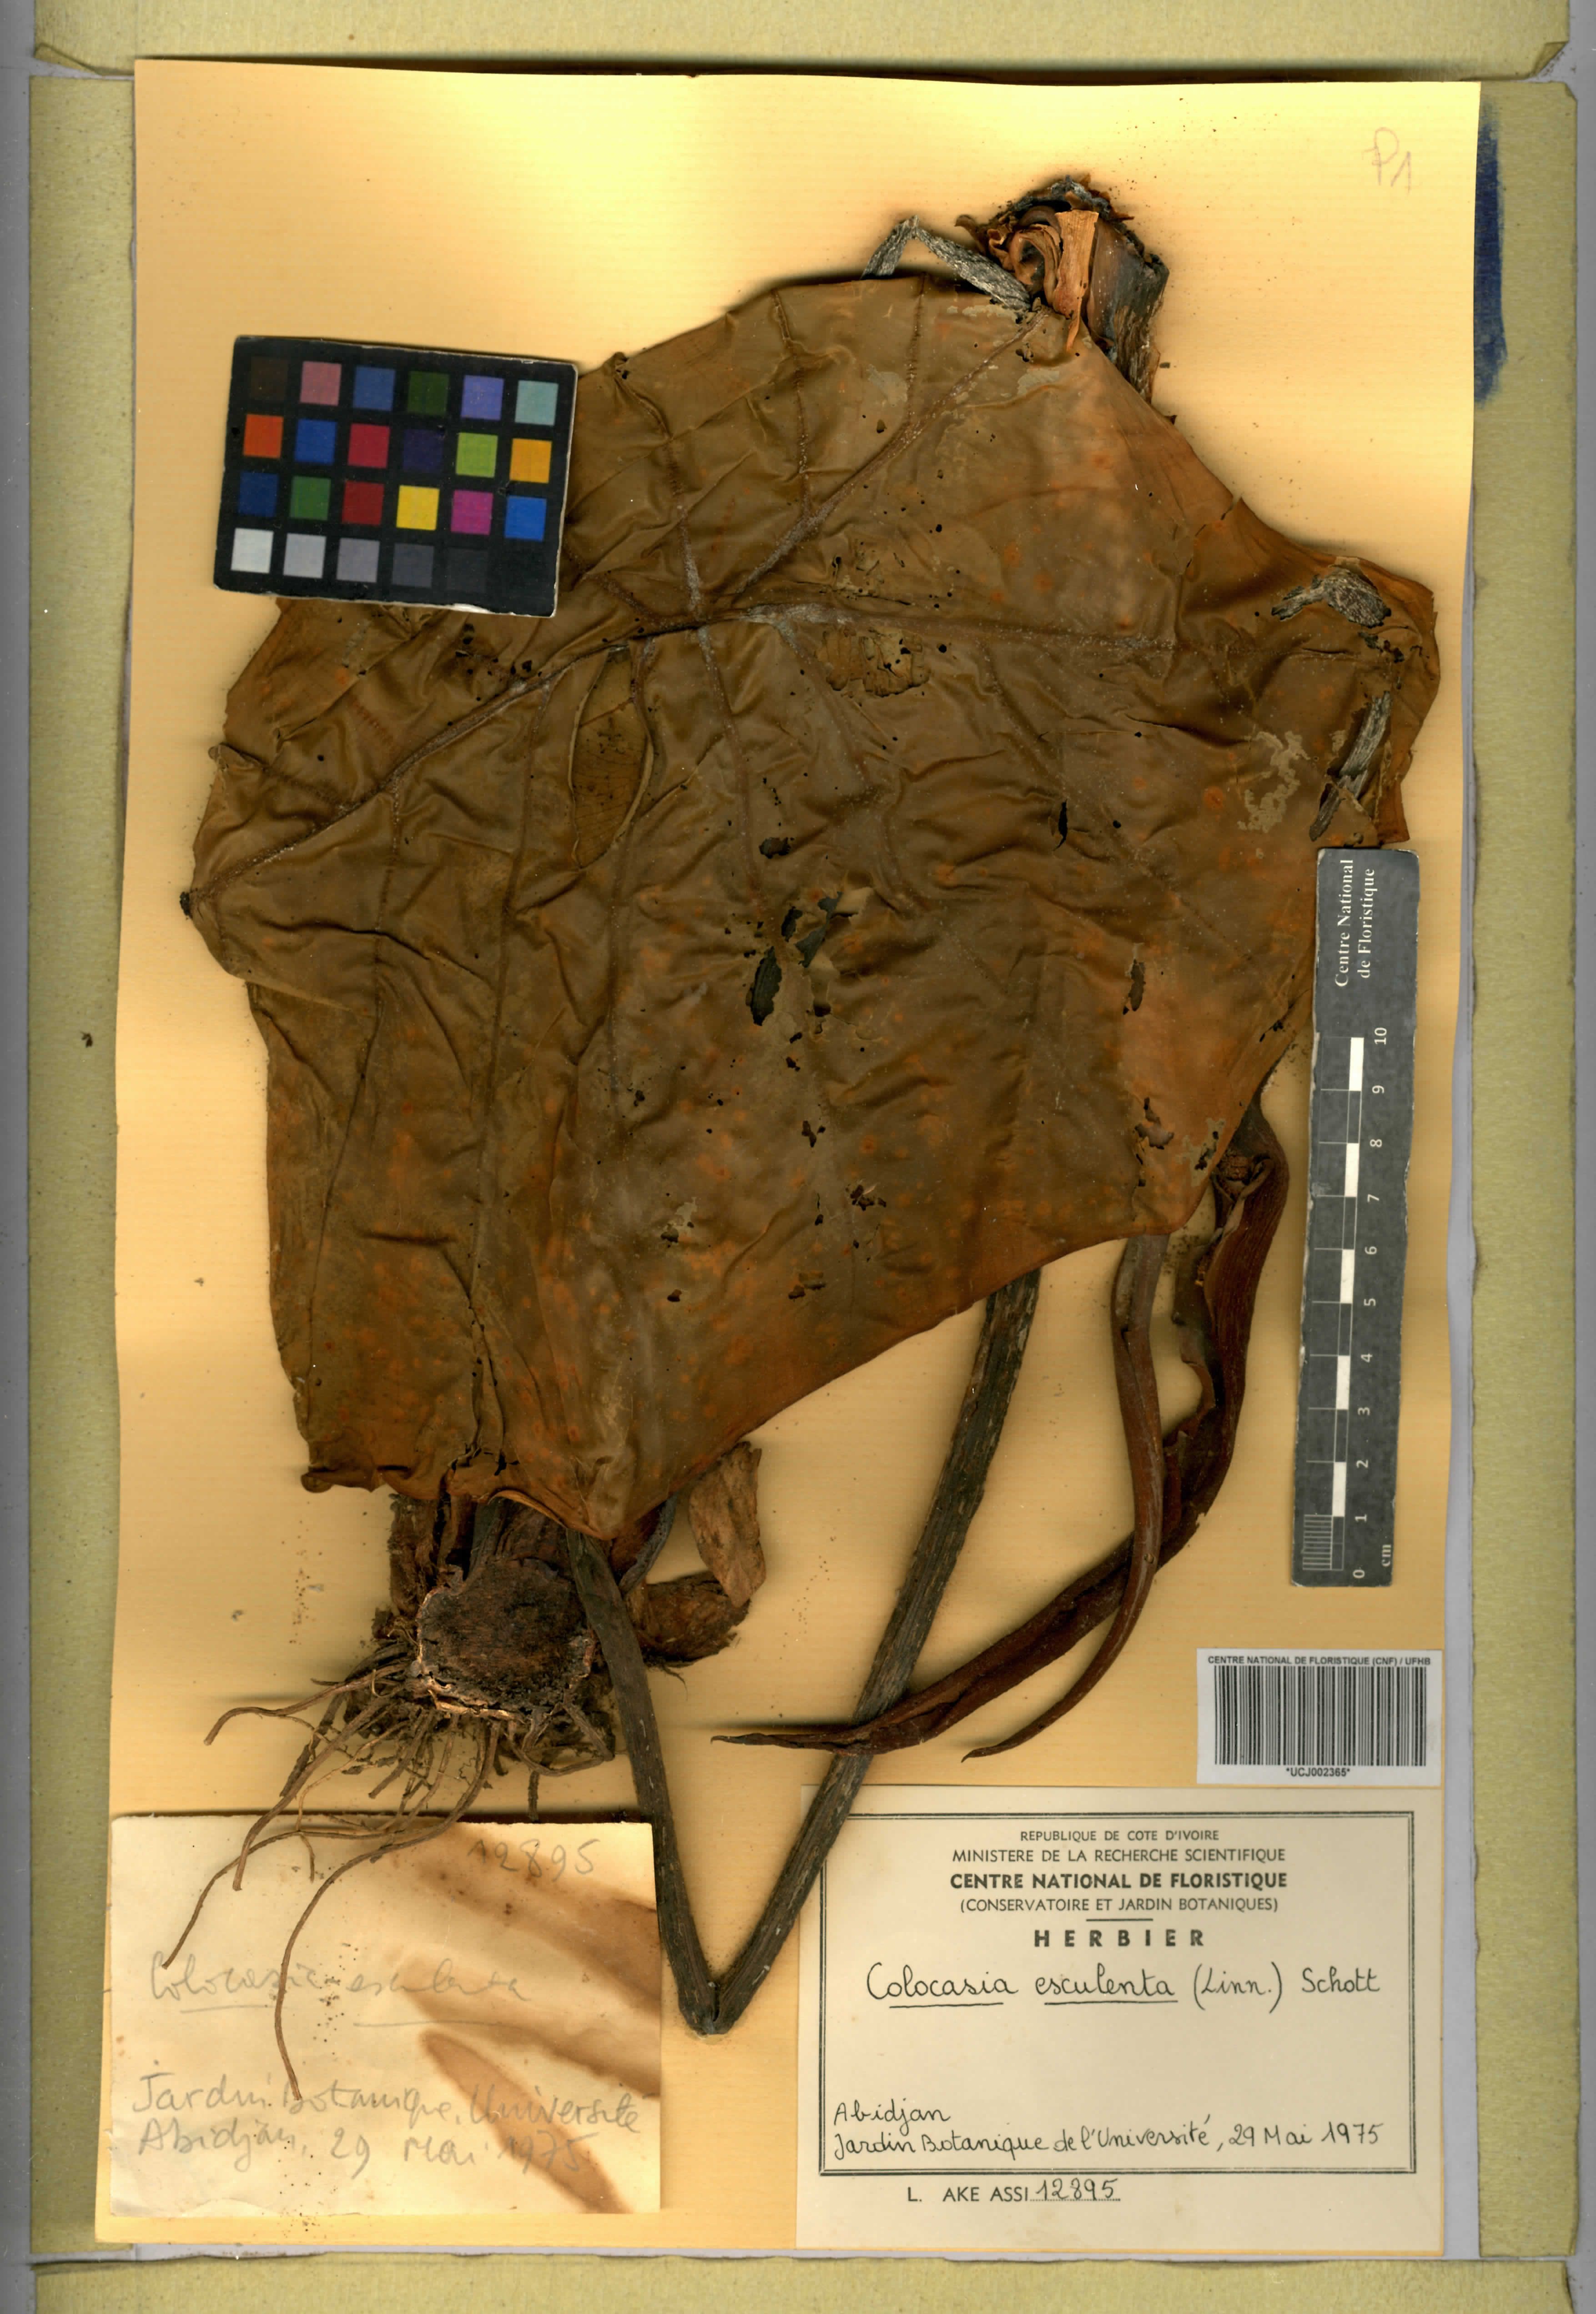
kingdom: Plantae
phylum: Tracheophyta
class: Liliopsida
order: Alismatales
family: Araceae
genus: Colocasia
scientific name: Colocasia esculenta
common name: Taro
